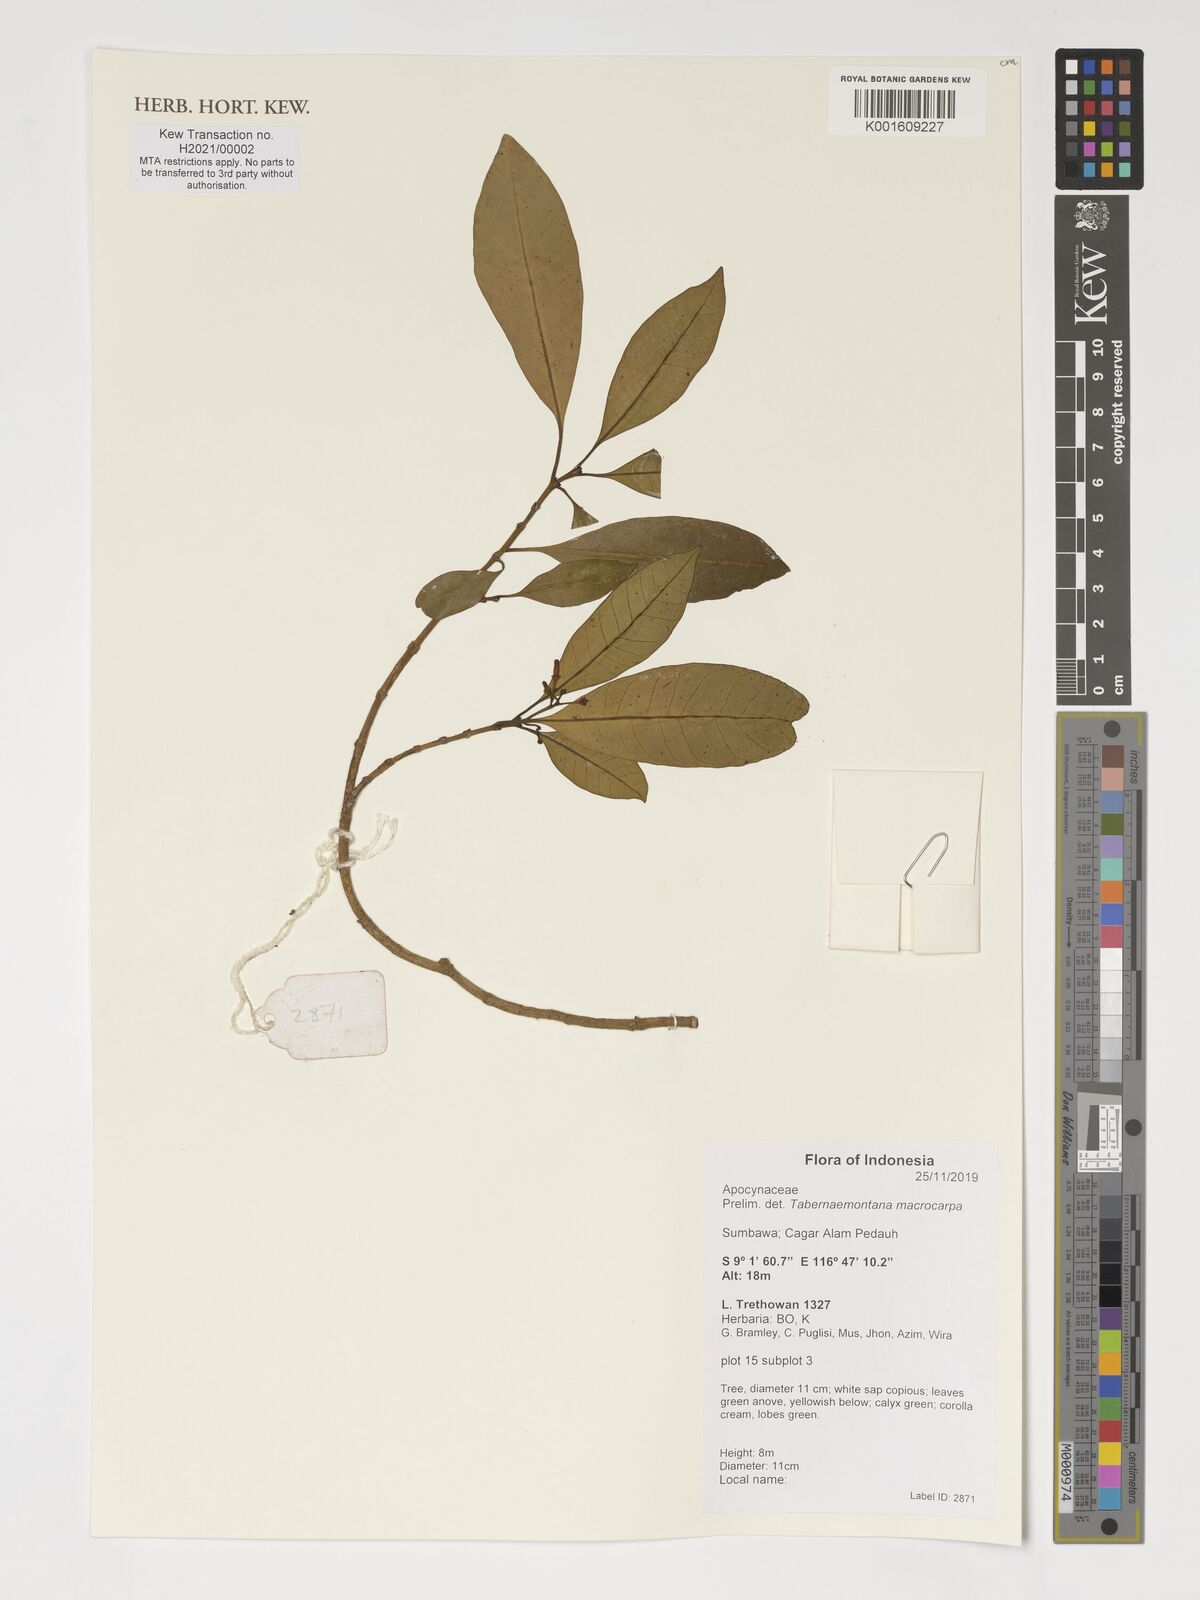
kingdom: Plantae
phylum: Tracheophyta
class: Magnoliopsida
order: Gentianales
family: Apocynaceae
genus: Tabernaemontana
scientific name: Tabernaemontana macrocarpa
